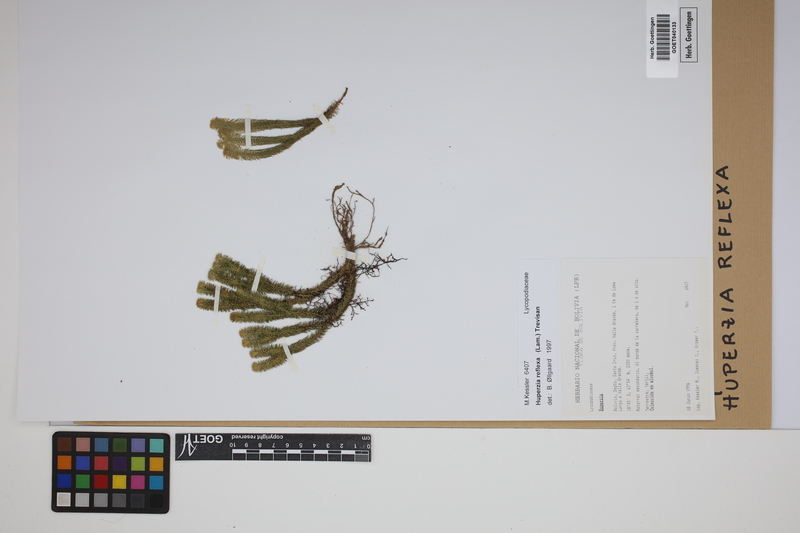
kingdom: Plantae
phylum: Tracheophyta
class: Lycopodiopsida
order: Lycopodiales
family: Lycopodiaceae
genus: Phlegmariurus
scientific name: Phlegmariurus reflexus
